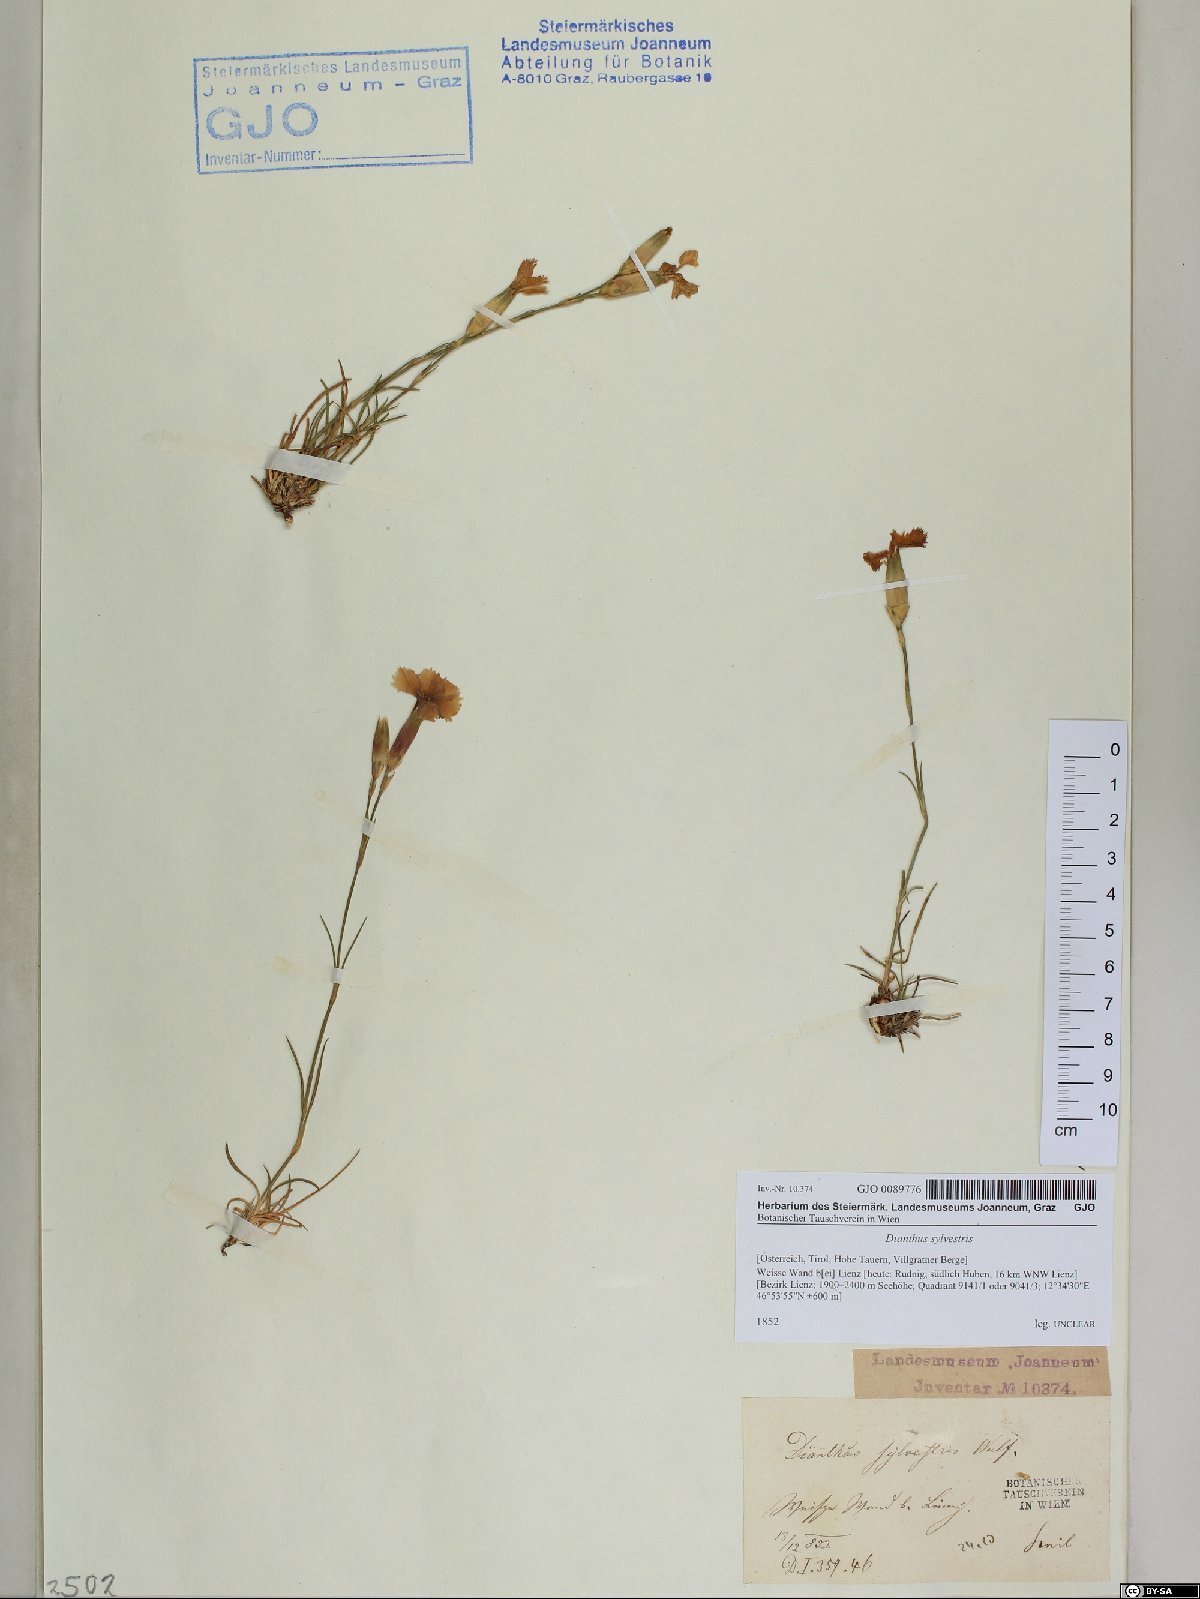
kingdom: Plantae
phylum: Tracheophyta
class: Magnoliopsida
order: Caryophyllales
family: Caryophyllaceae
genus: Dianthus
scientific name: Dianthus sylvestris
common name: Wood pink
